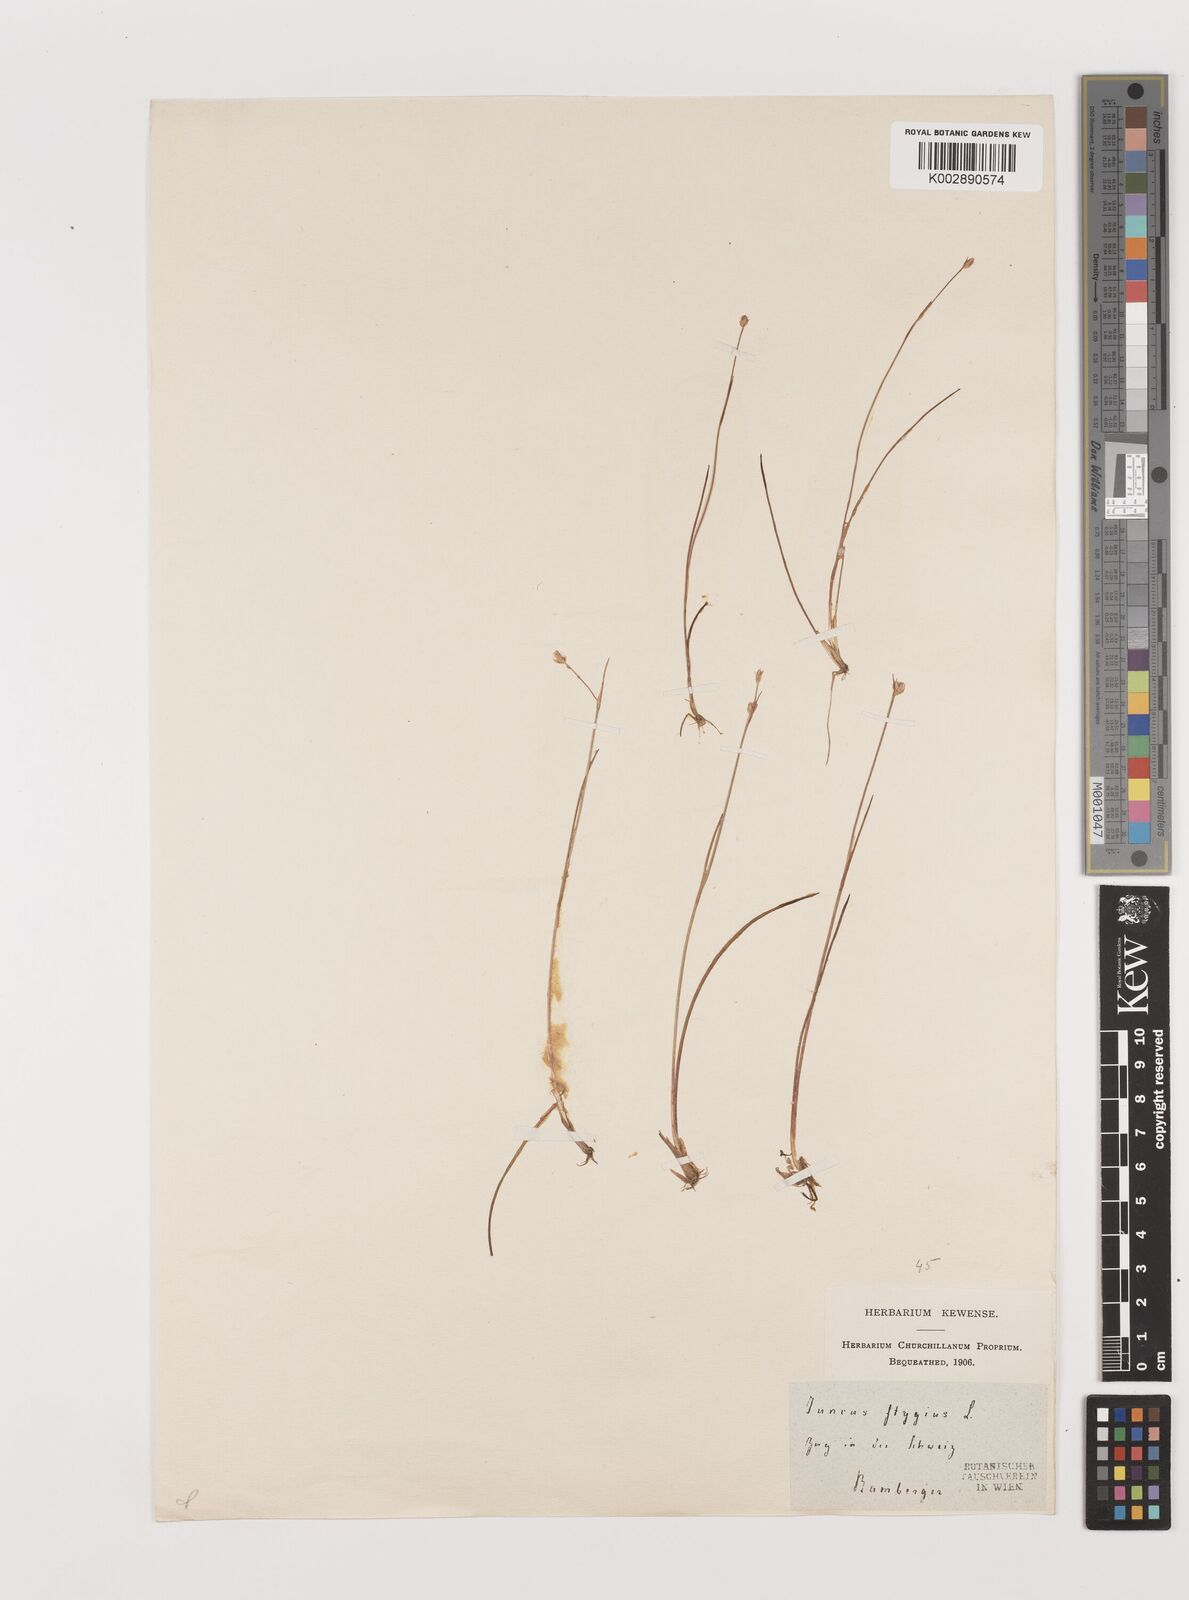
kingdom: Plantae
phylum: Tracheophyta
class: Liliopsida
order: Poales
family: Juncaceae
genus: Juncus
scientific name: Juncus stygius
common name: Bog rush
